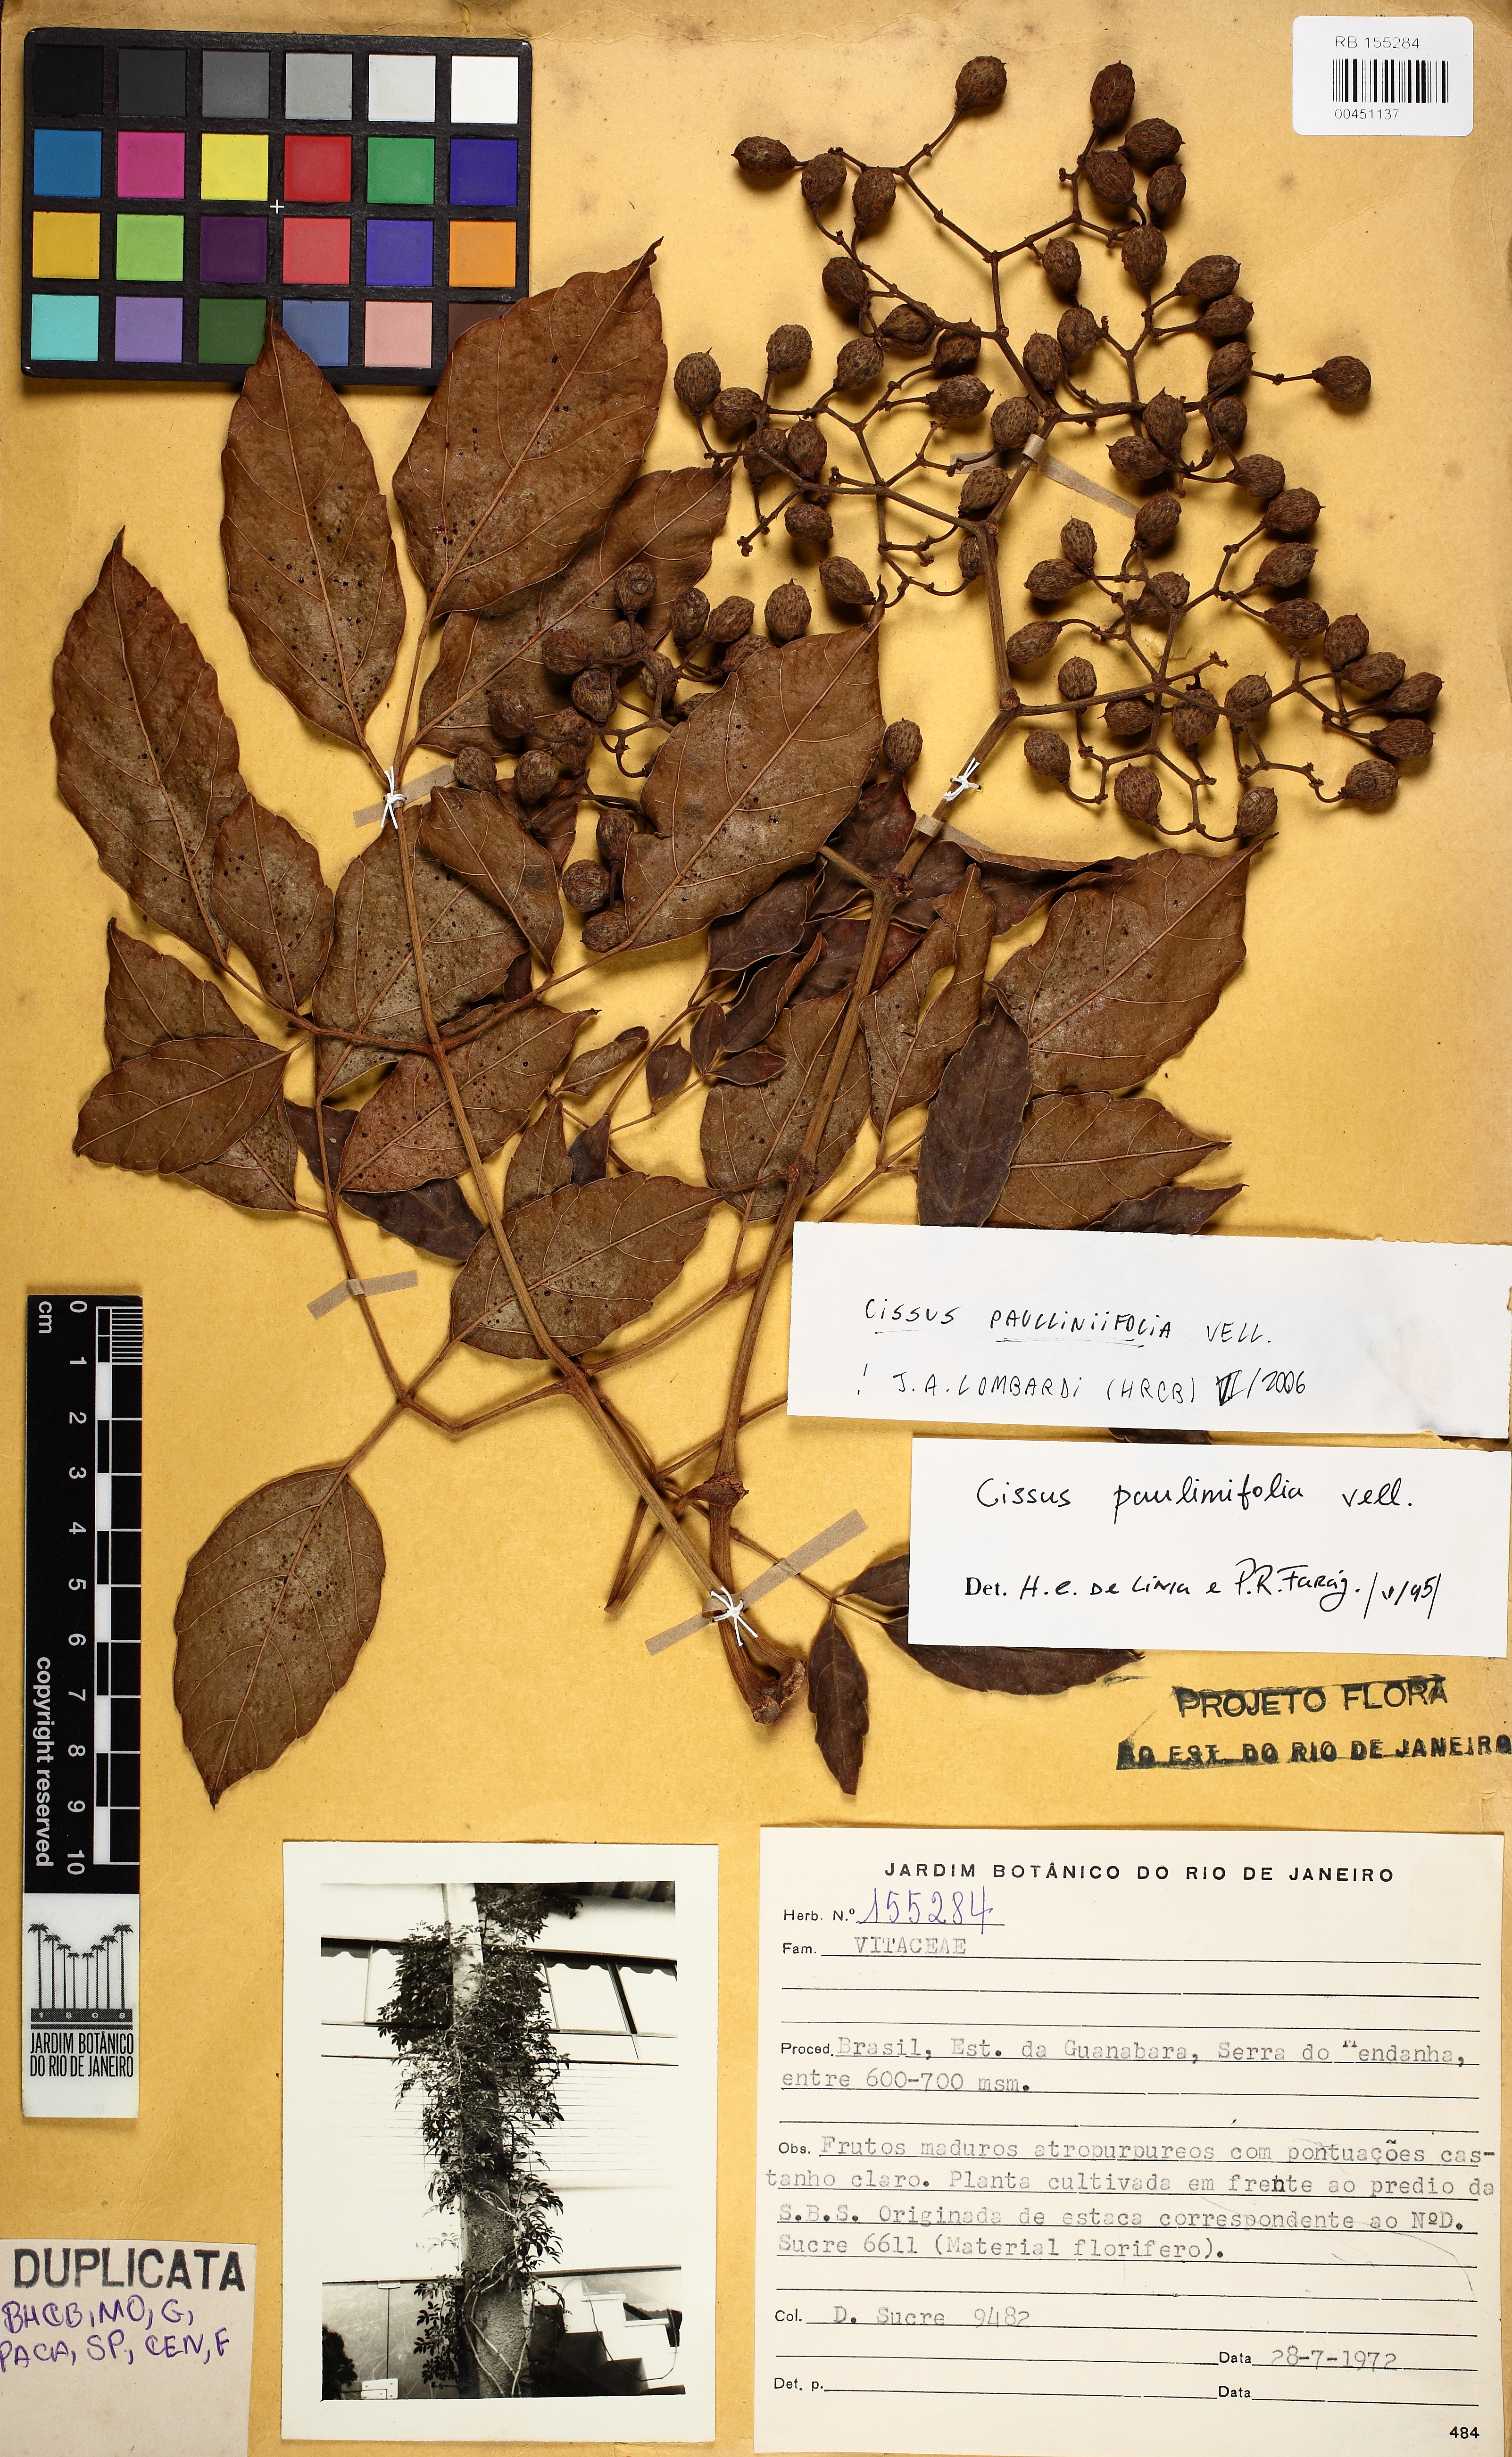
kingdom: Plantae
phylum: Tracheophyta
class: Magnoliopsida
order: Vitales
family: Vitaceae
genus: Cissus
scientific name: Cissus paullinifolia
